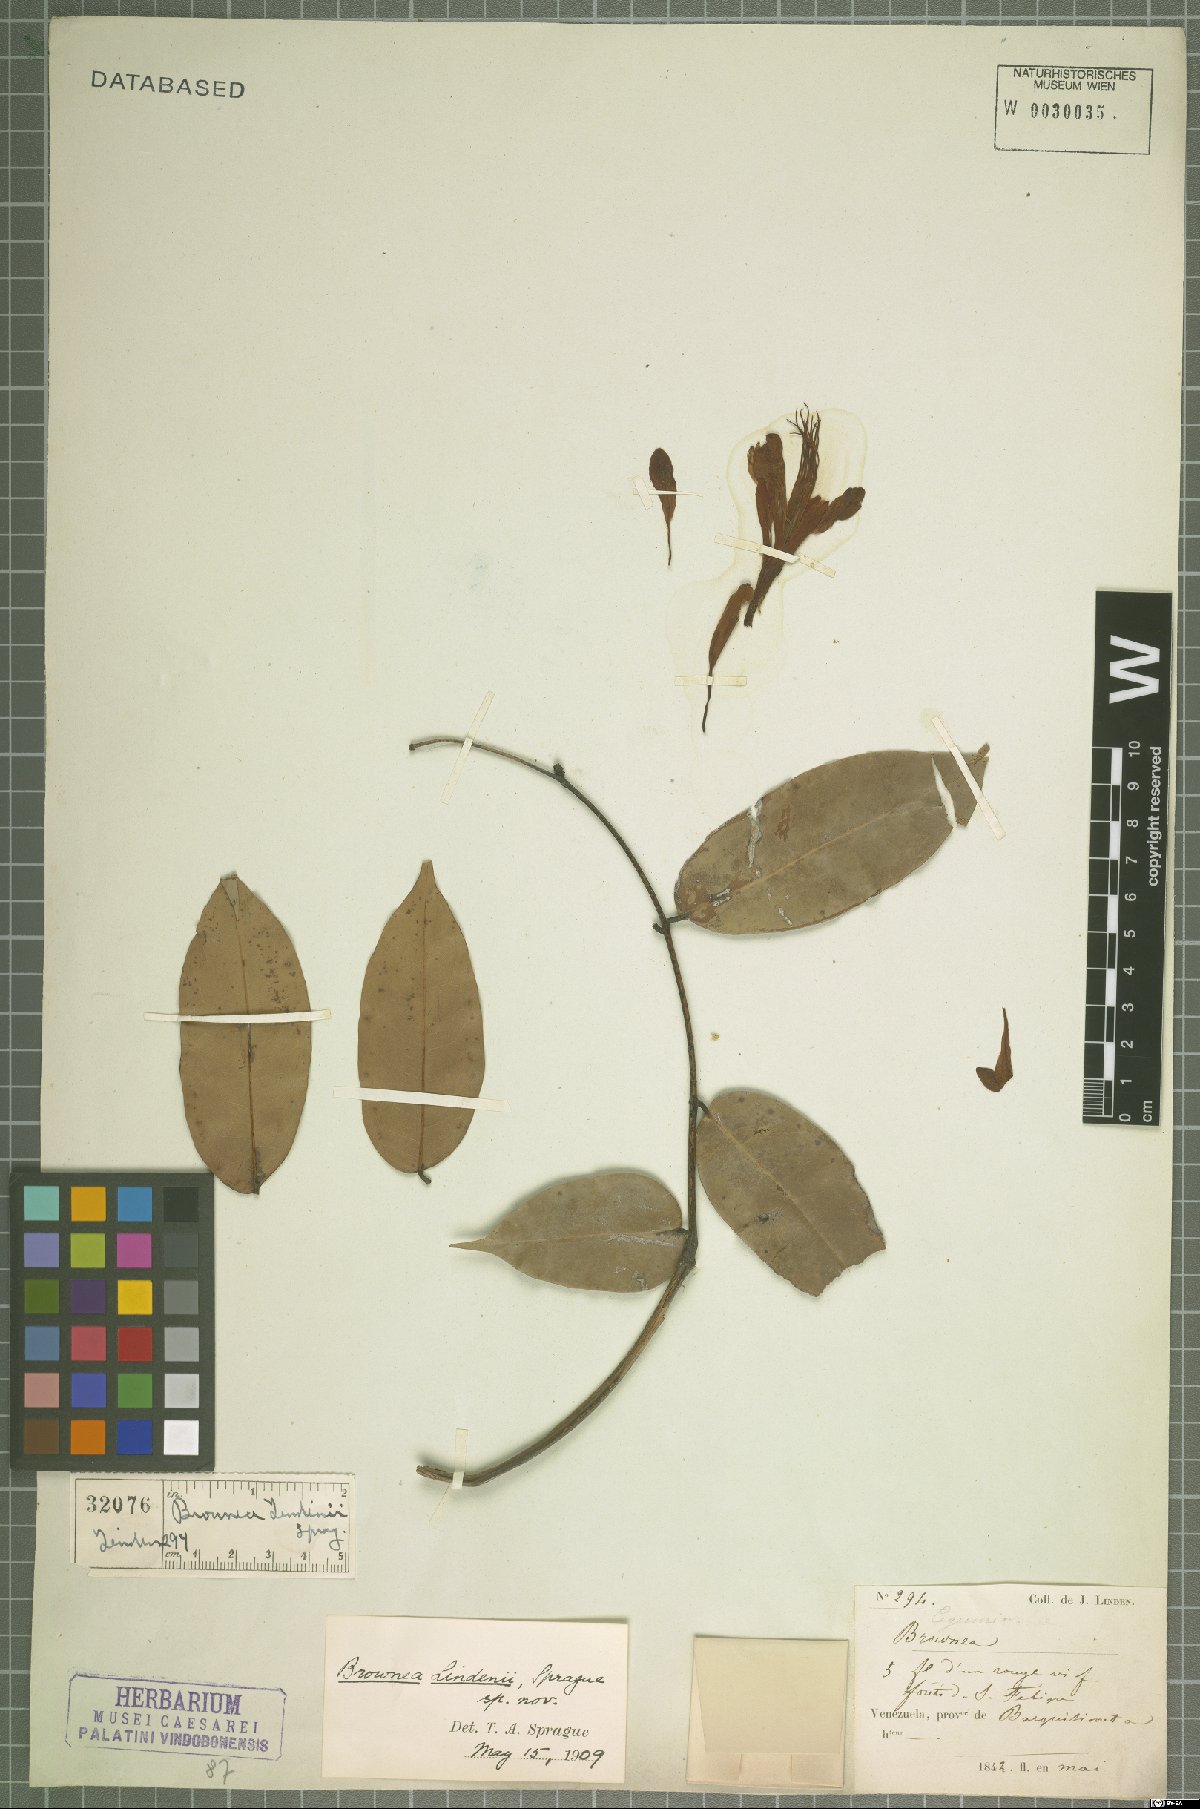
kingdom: Plantae
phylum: Tracheophyta
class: Magnoliopsida
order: Fabales
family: Fabaceae
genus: Brownea
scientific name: Brownea
